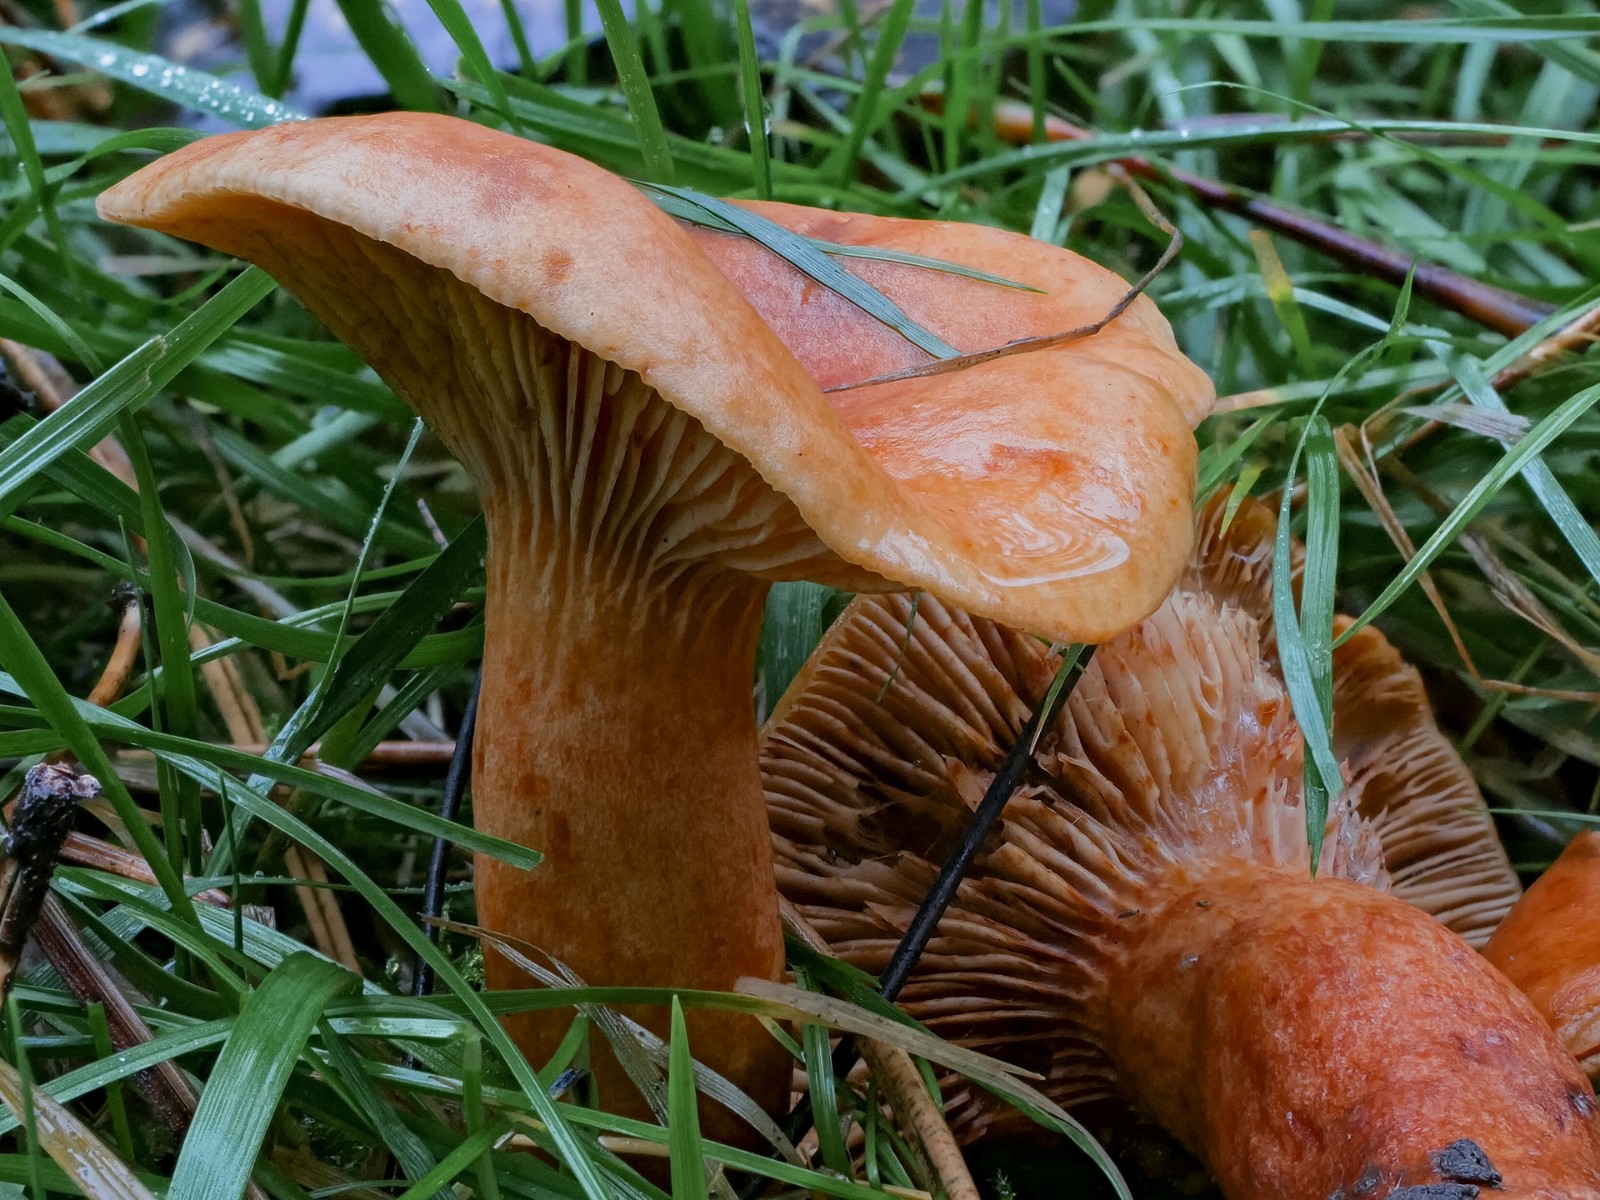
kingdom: Fungi
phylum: Basidiomycota
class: Agaricomycetes
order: Russulales
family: Russulaceae
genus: Lactarius
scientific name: Lactarius fulvissimus
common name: ræve-mælkehat
